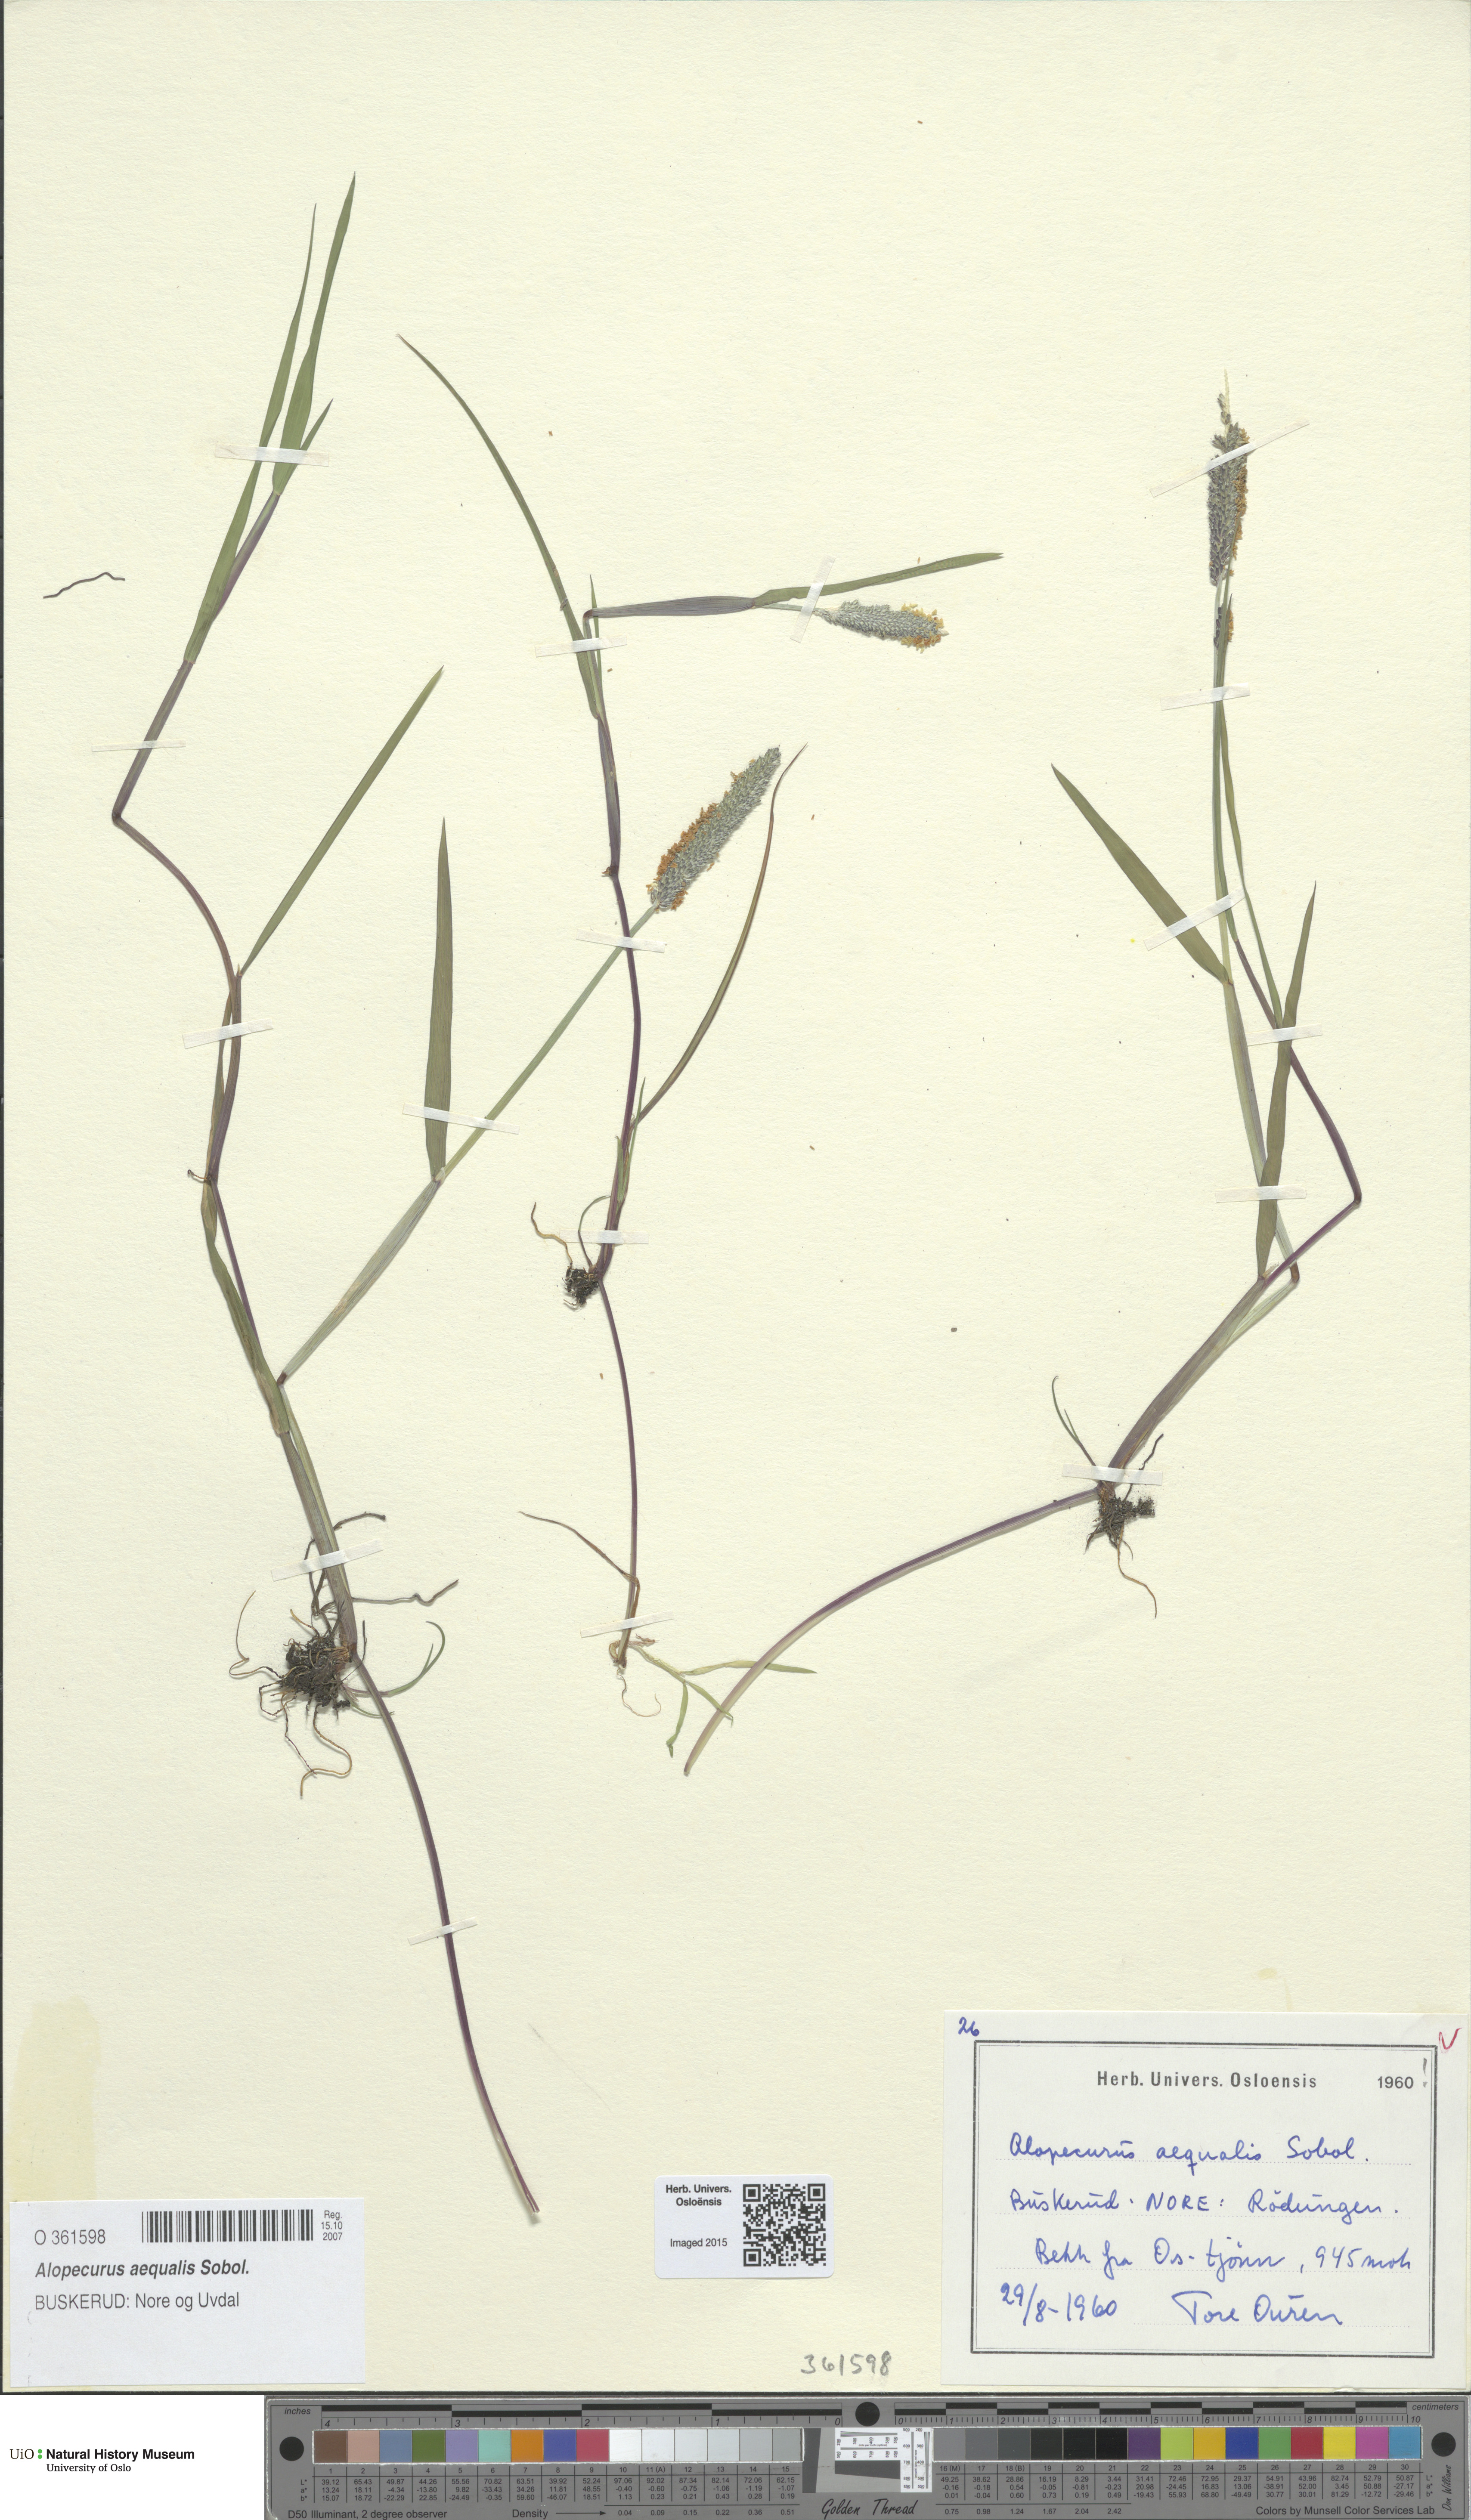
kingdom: Plantae
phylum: Tracheophyta
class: Liliopsida
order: Poales
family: Poaceae
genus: Alopecurus
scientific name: Alopecurus aequalis
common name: Orange foxtail
